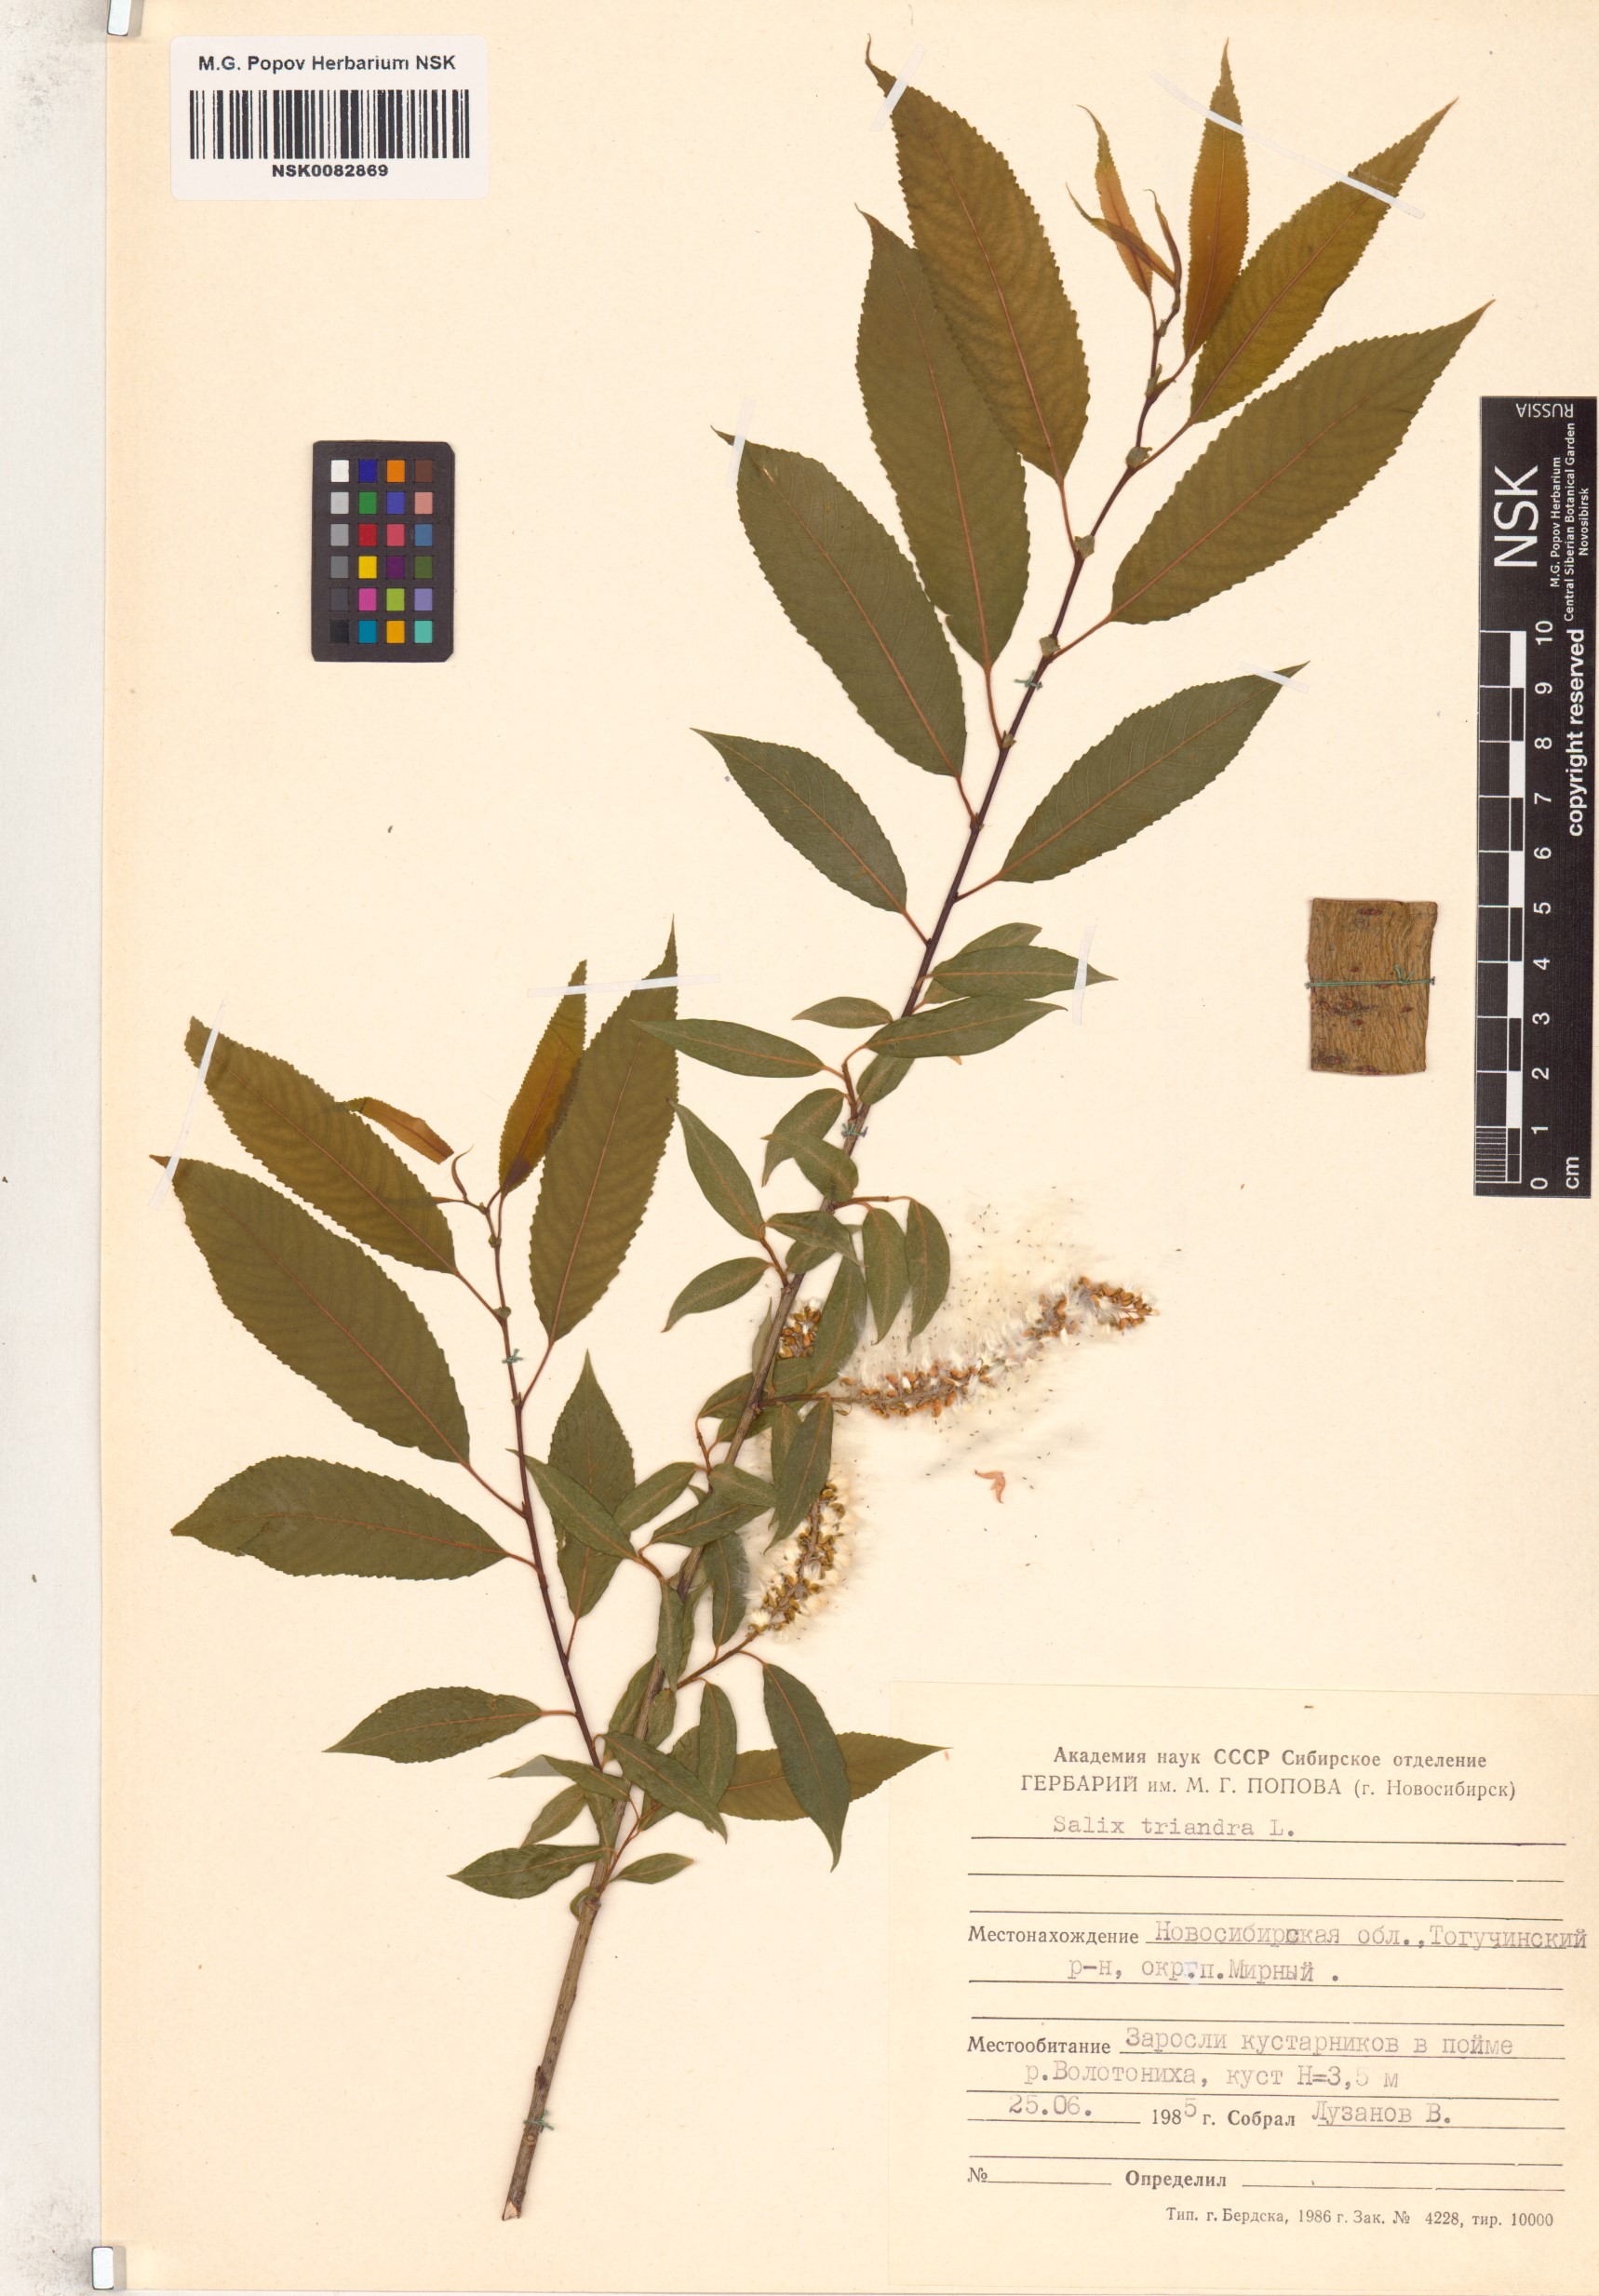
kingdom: Plantae
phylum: Tracheophyta
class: Magnoliopsida
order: Malpighiales
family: Salicaceae
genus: Salix
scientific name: Salix triandra
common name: Almond willow
